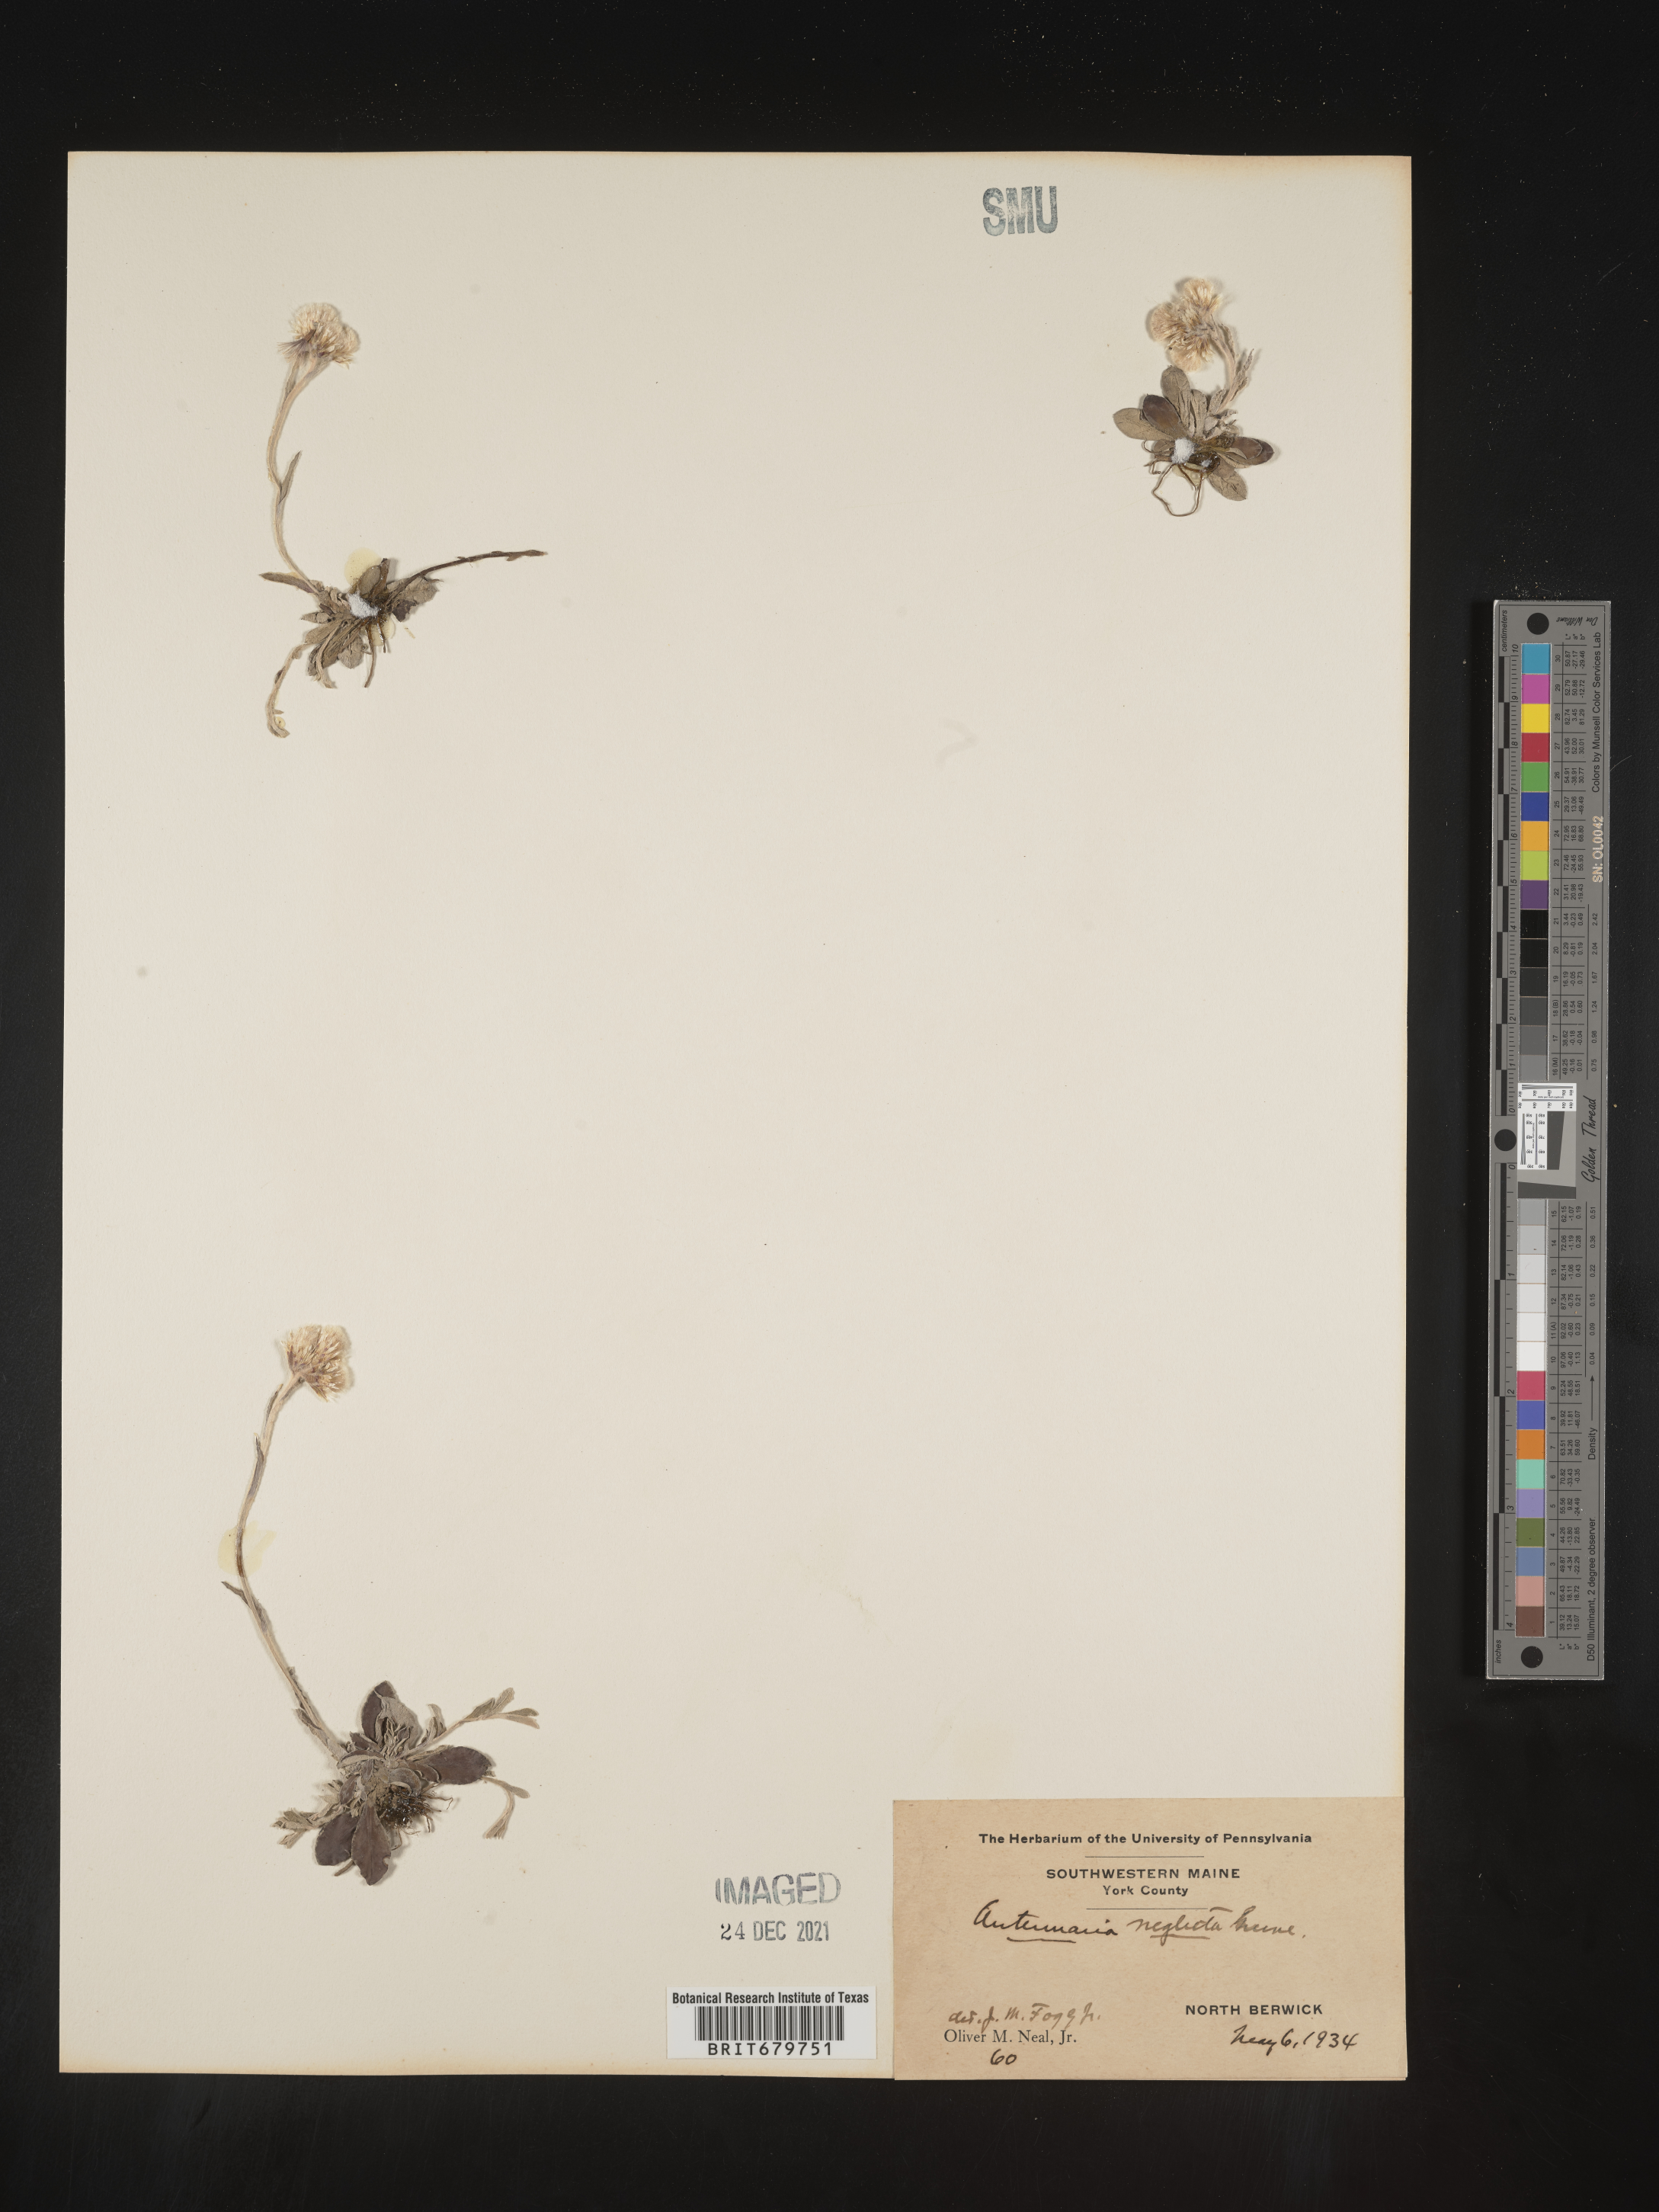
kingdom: Plantae
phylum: Tracheophyta
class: Magnoliopsida
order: Asterales
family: Asteraceae
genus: Antennaria
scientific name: Antennaria neglecta
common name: Field pussytoes
